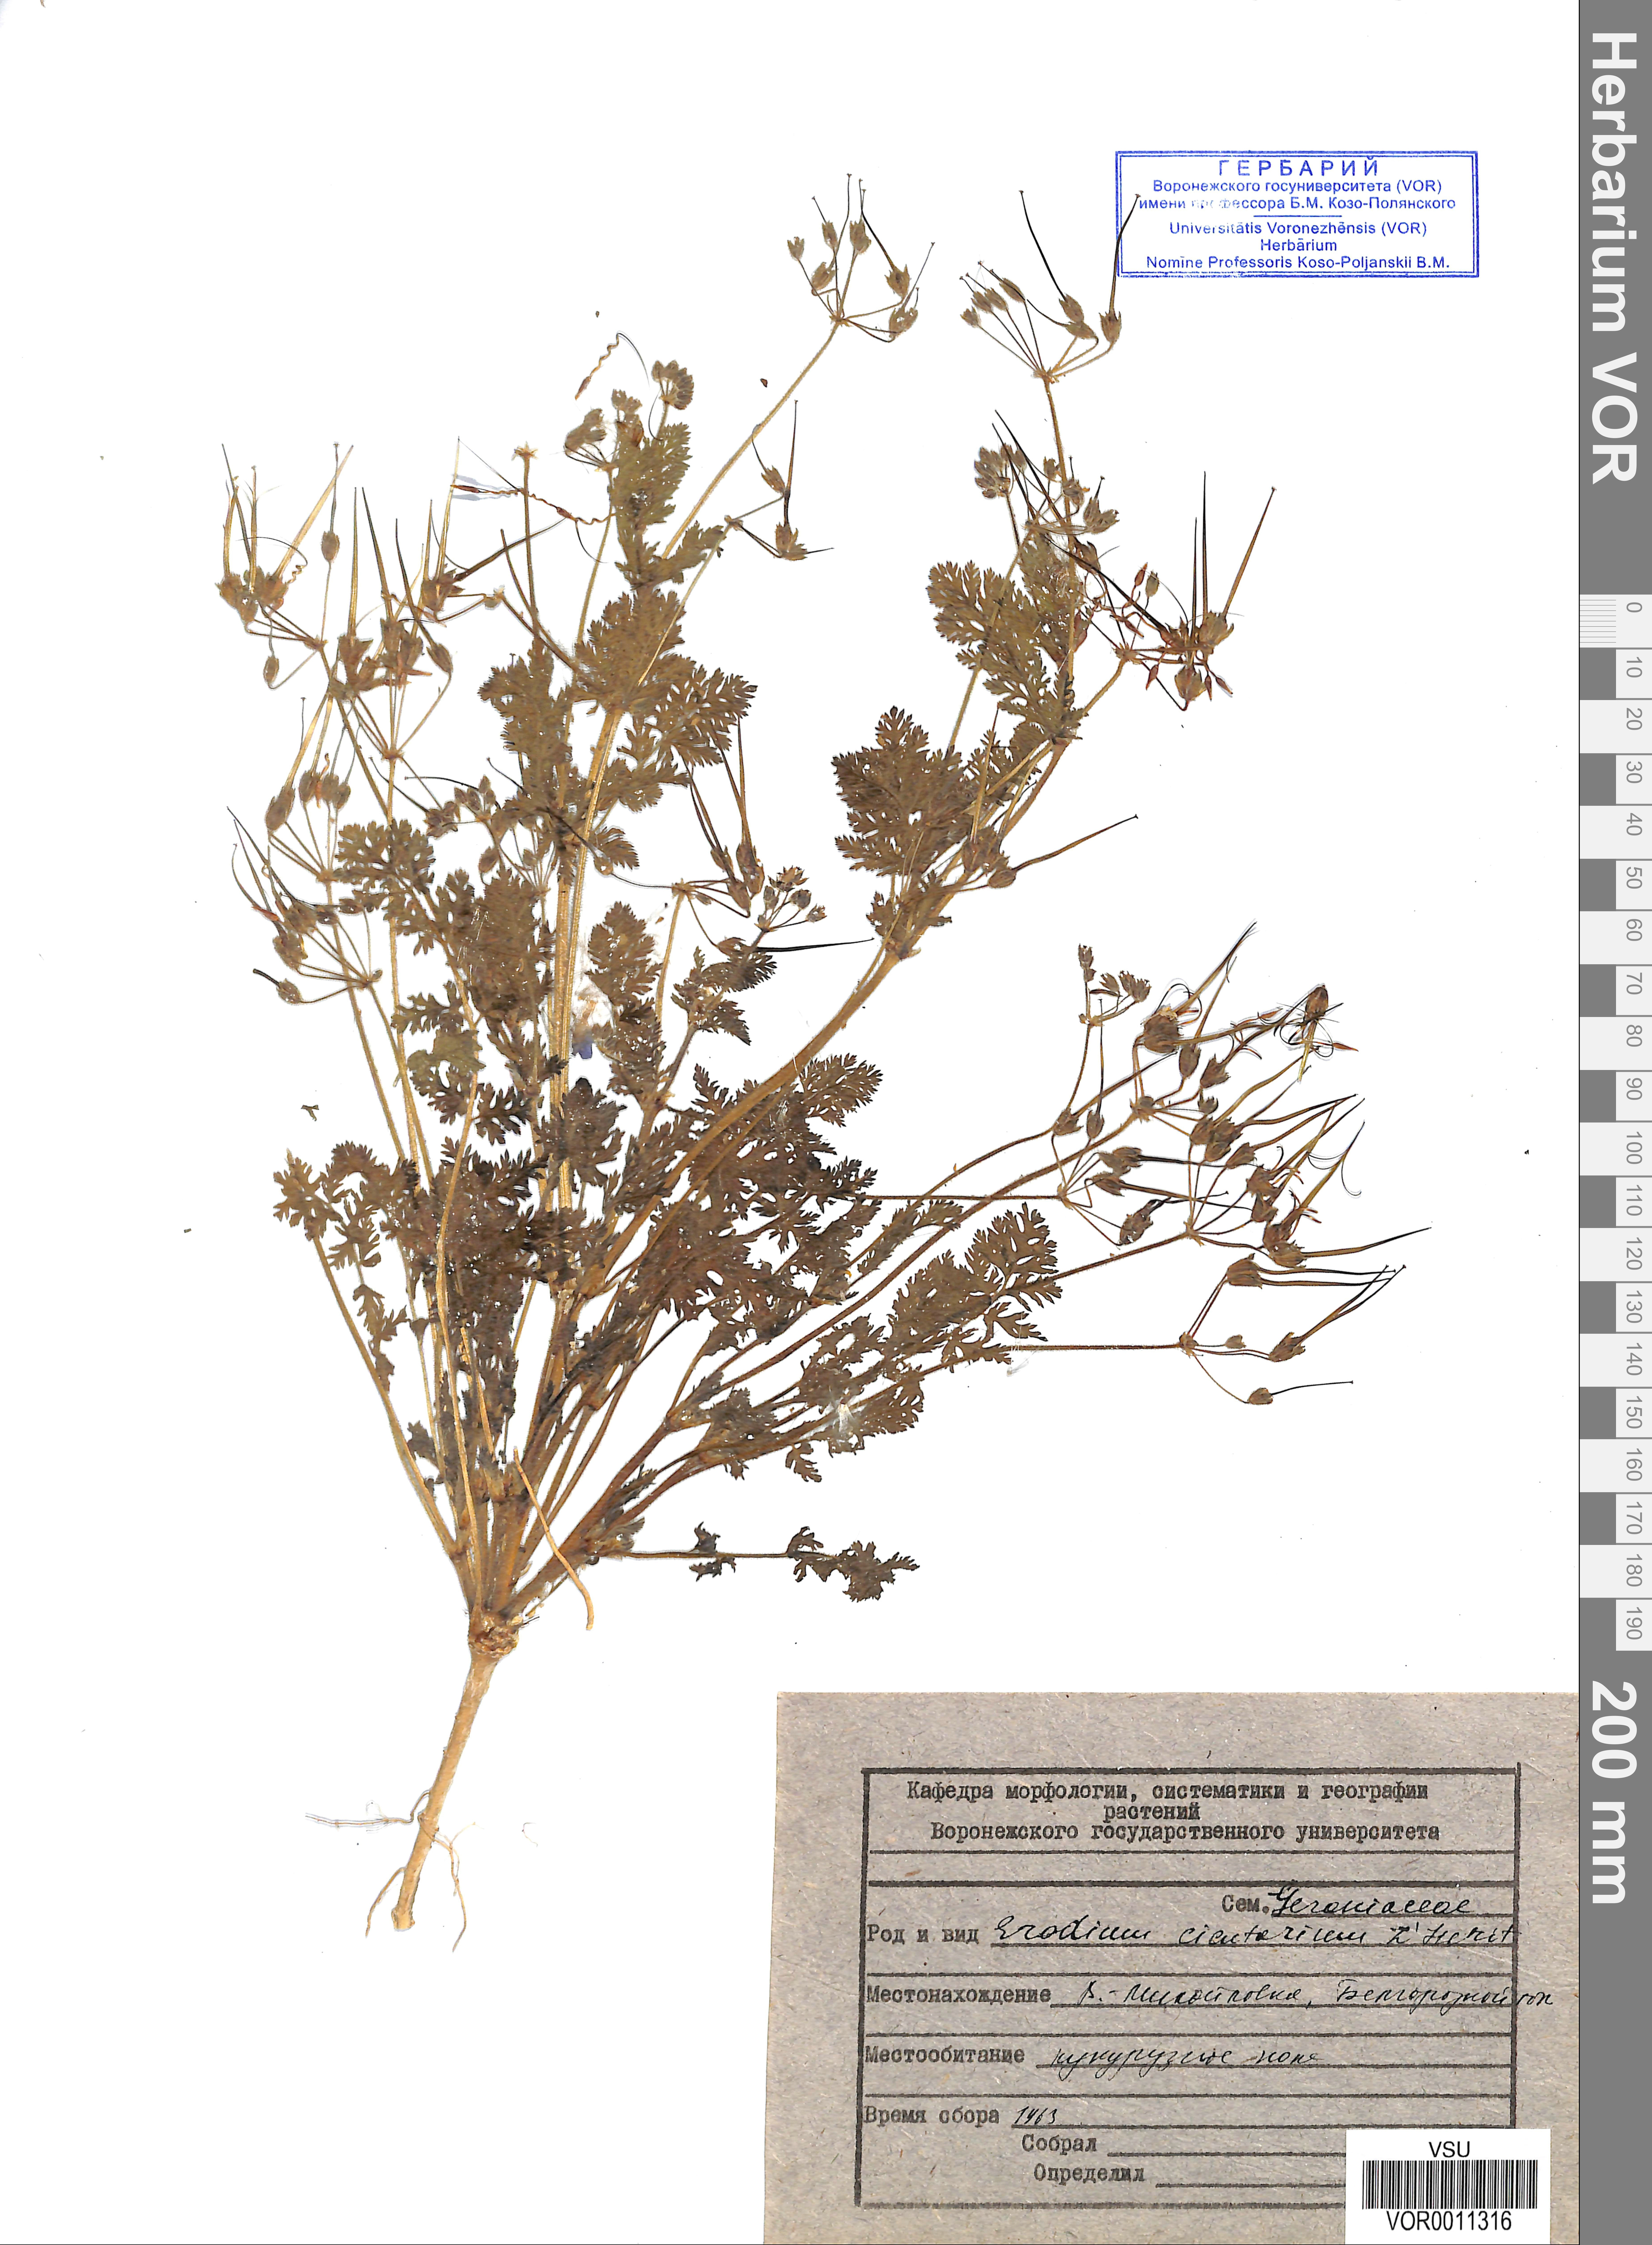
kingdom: Plantae
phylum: Tracheophyta
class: Magnoliopsida
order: Geraniales
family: Geraniaceae
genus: Erodium
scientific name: Erodium cicutarium
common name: Common stork's-bill
